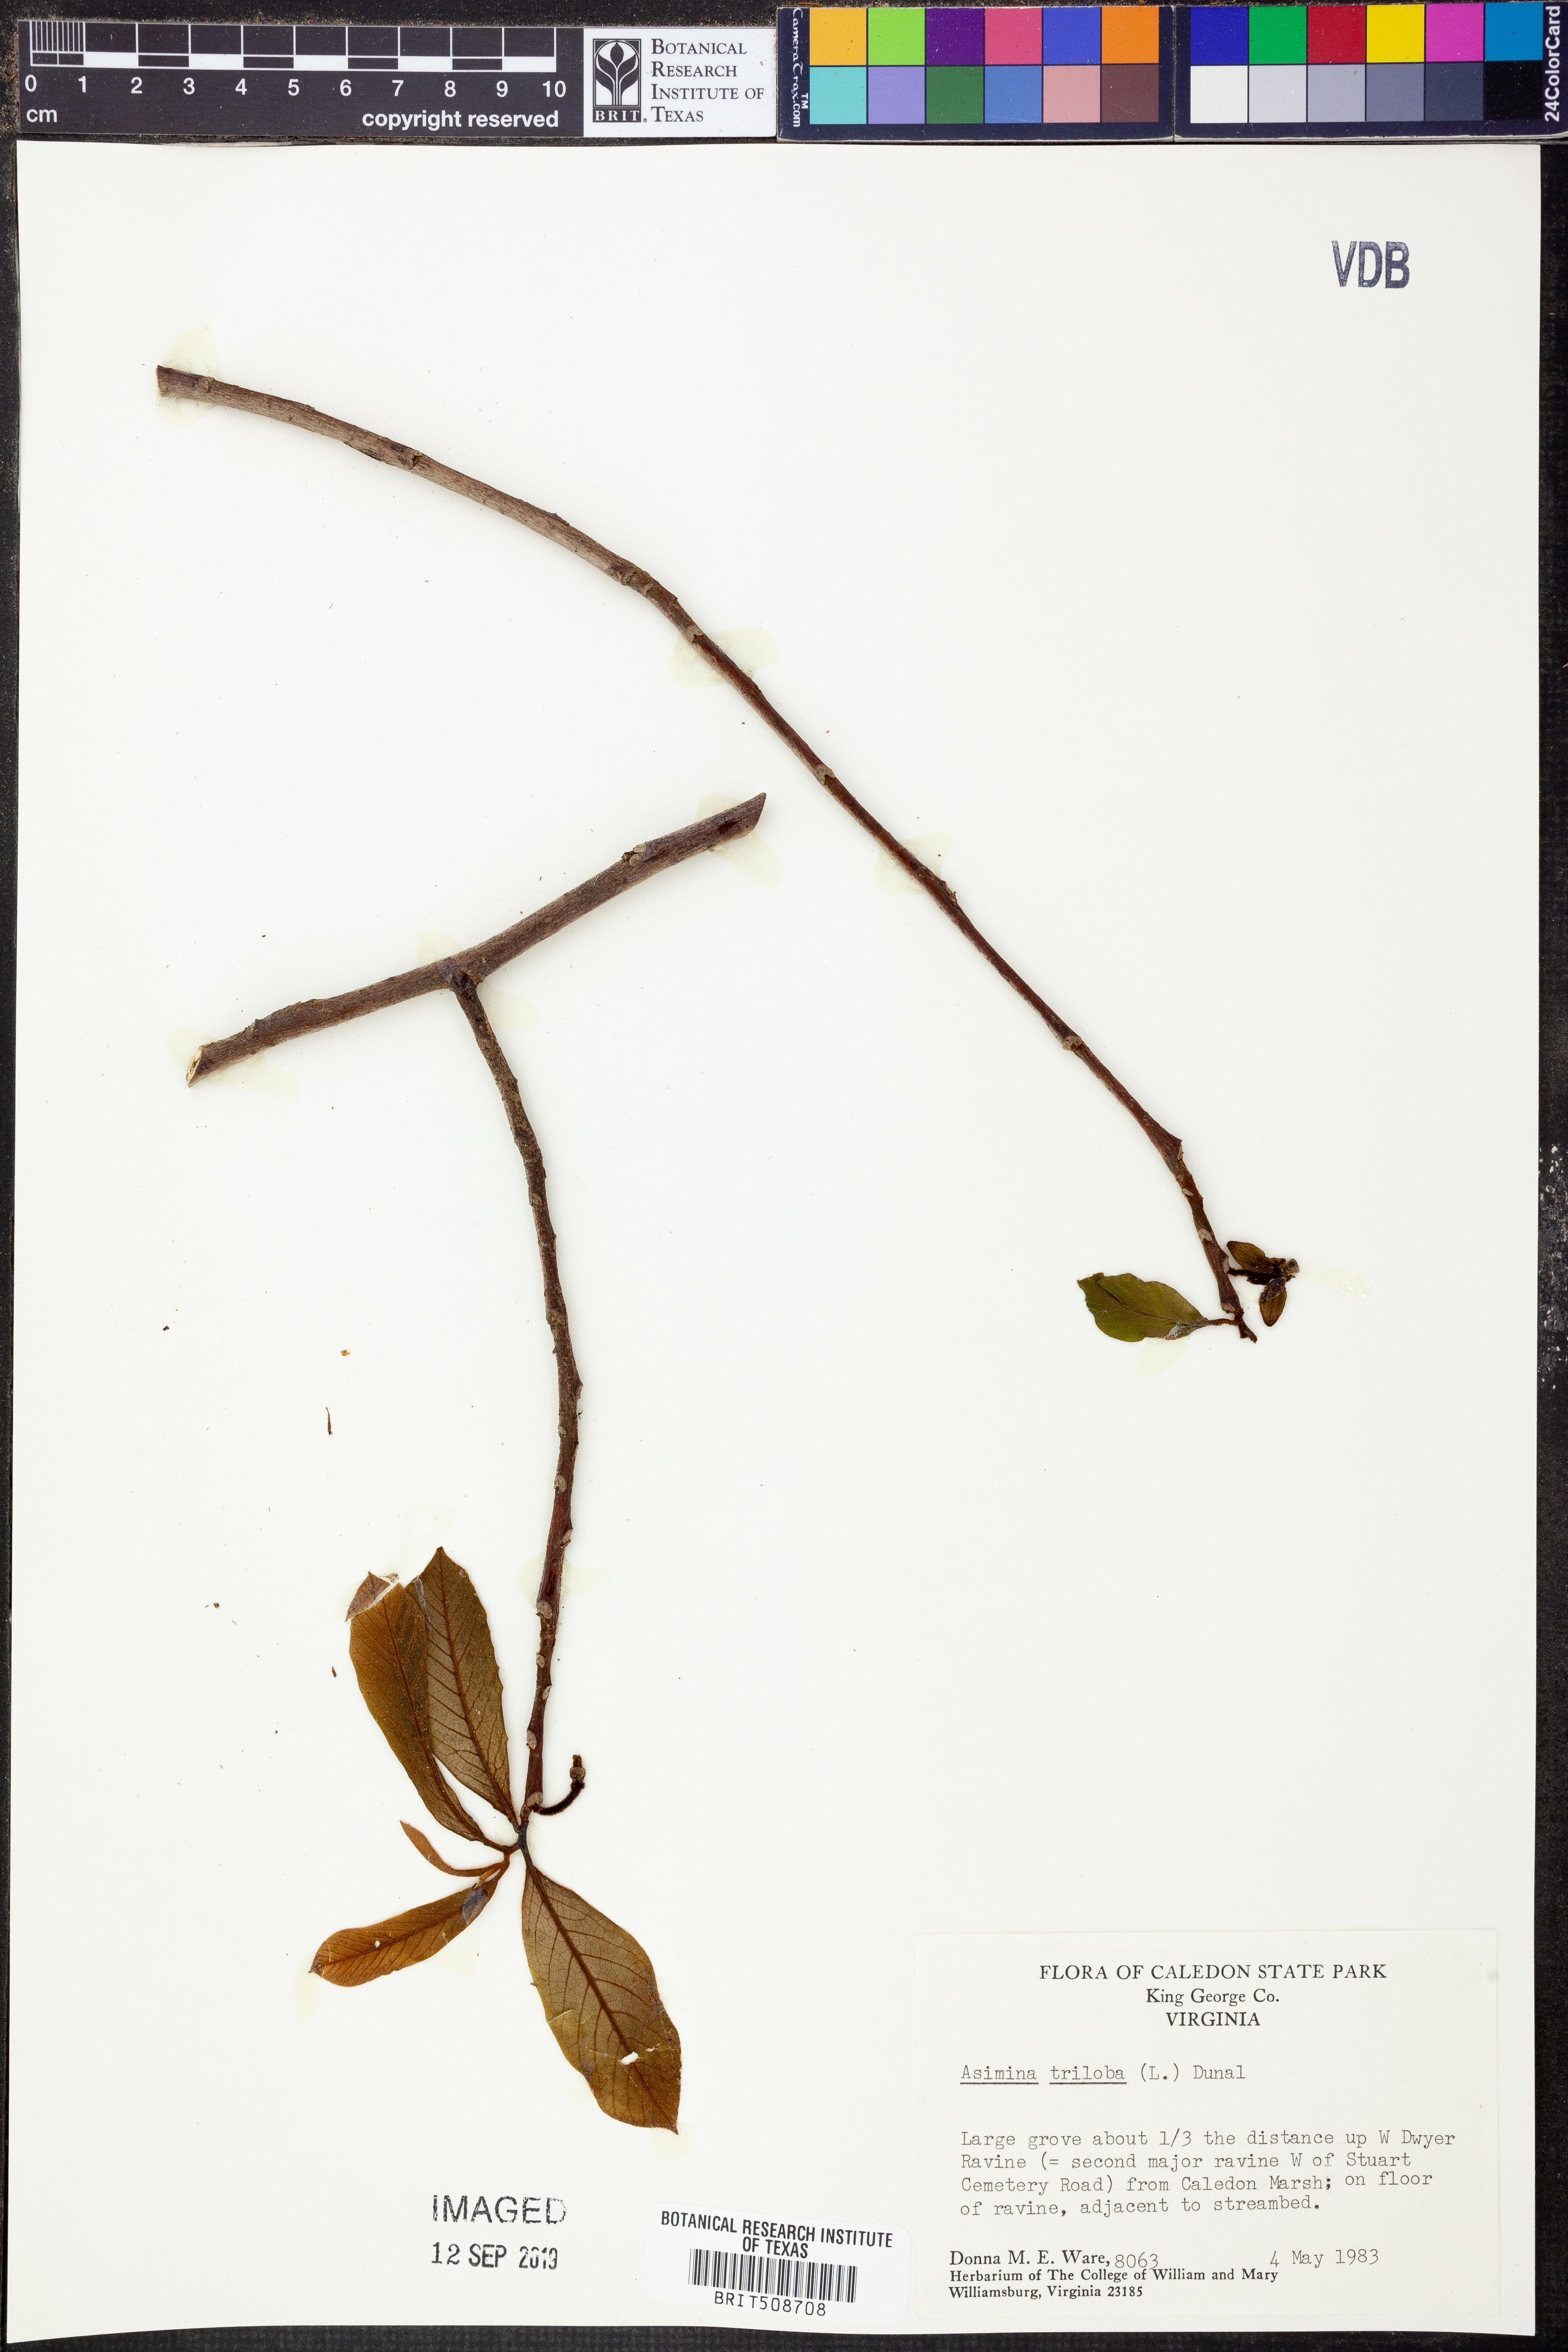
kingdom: Plantae
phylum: Tracheophyta
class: Magnoliopsida
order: Magnoliales
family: Annonaceae
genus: Asimina
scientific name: Asimina triloba
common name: Dog-banana
